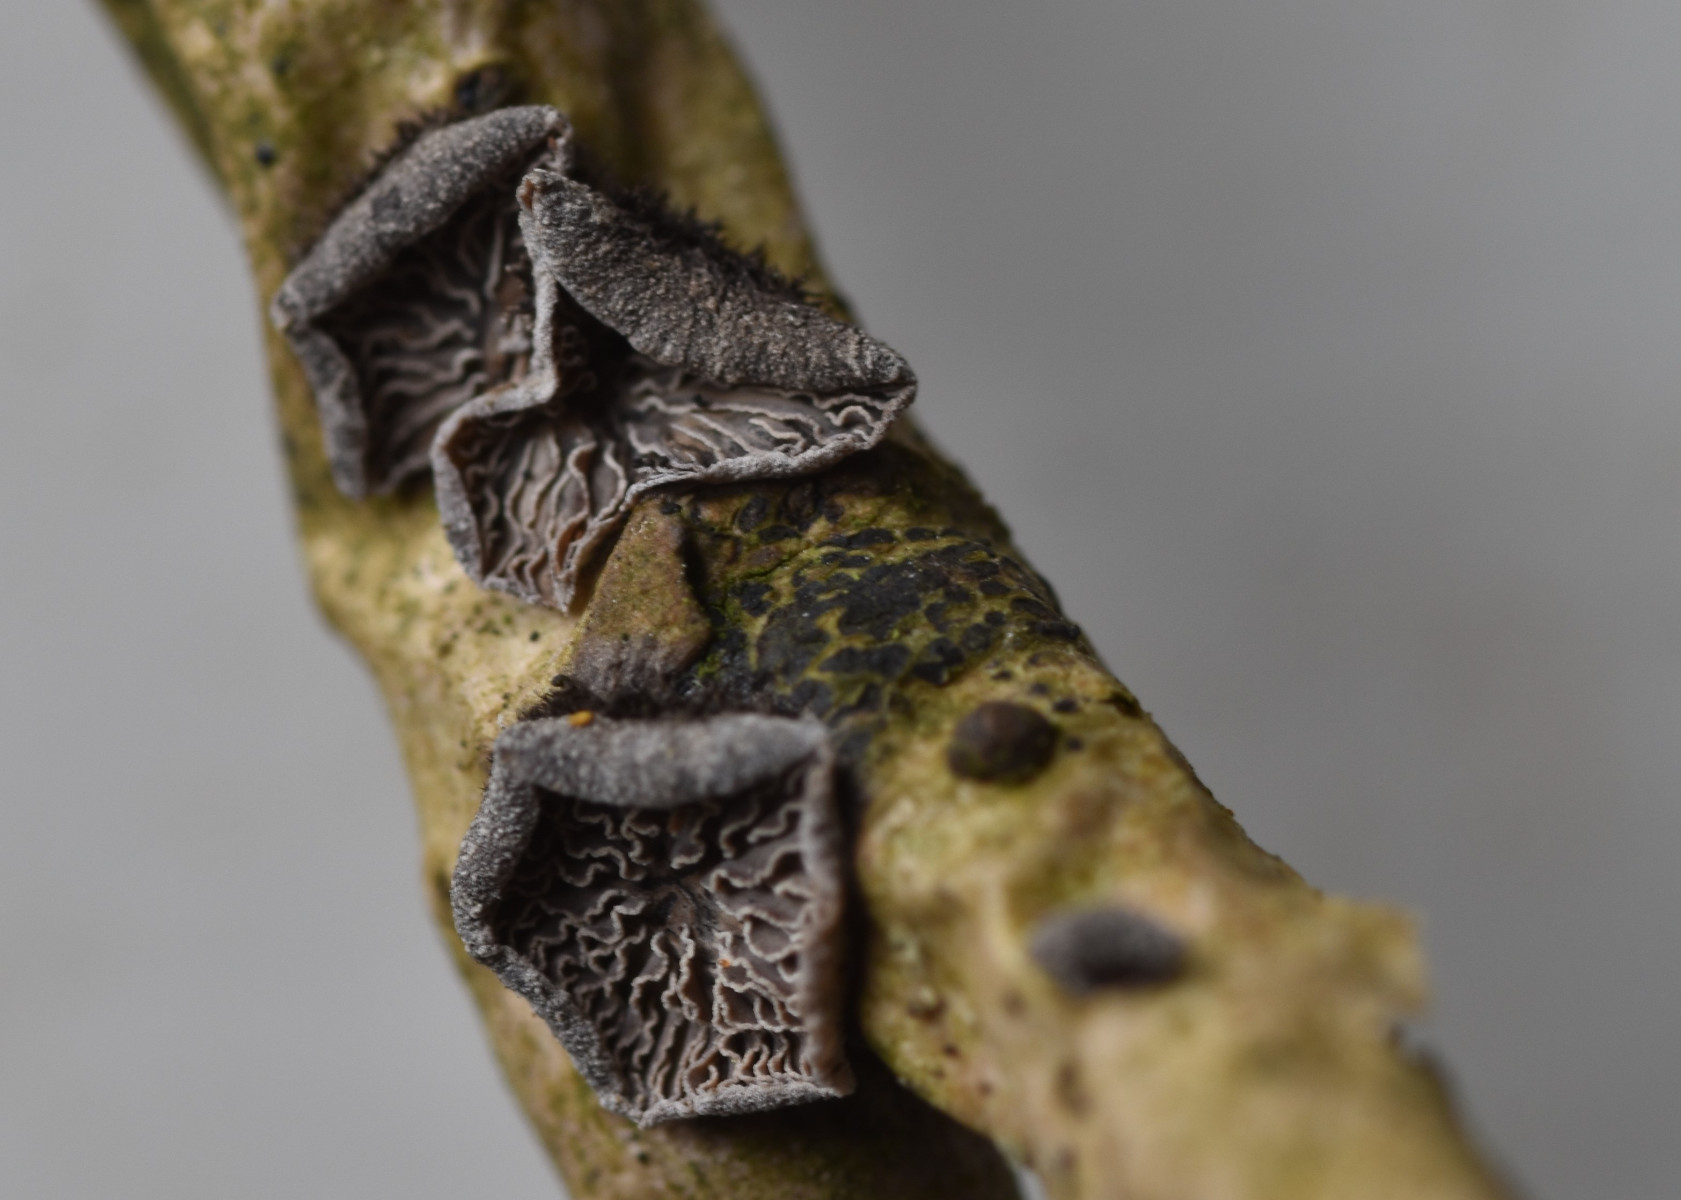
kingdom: Fungi
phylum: Basidiomycota
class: Agaricomycetes
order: Agaricales
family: Pleurotaceae
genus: Resupinatus
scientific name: Resupinatus trichotis
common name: mørkfiltet barkhat
